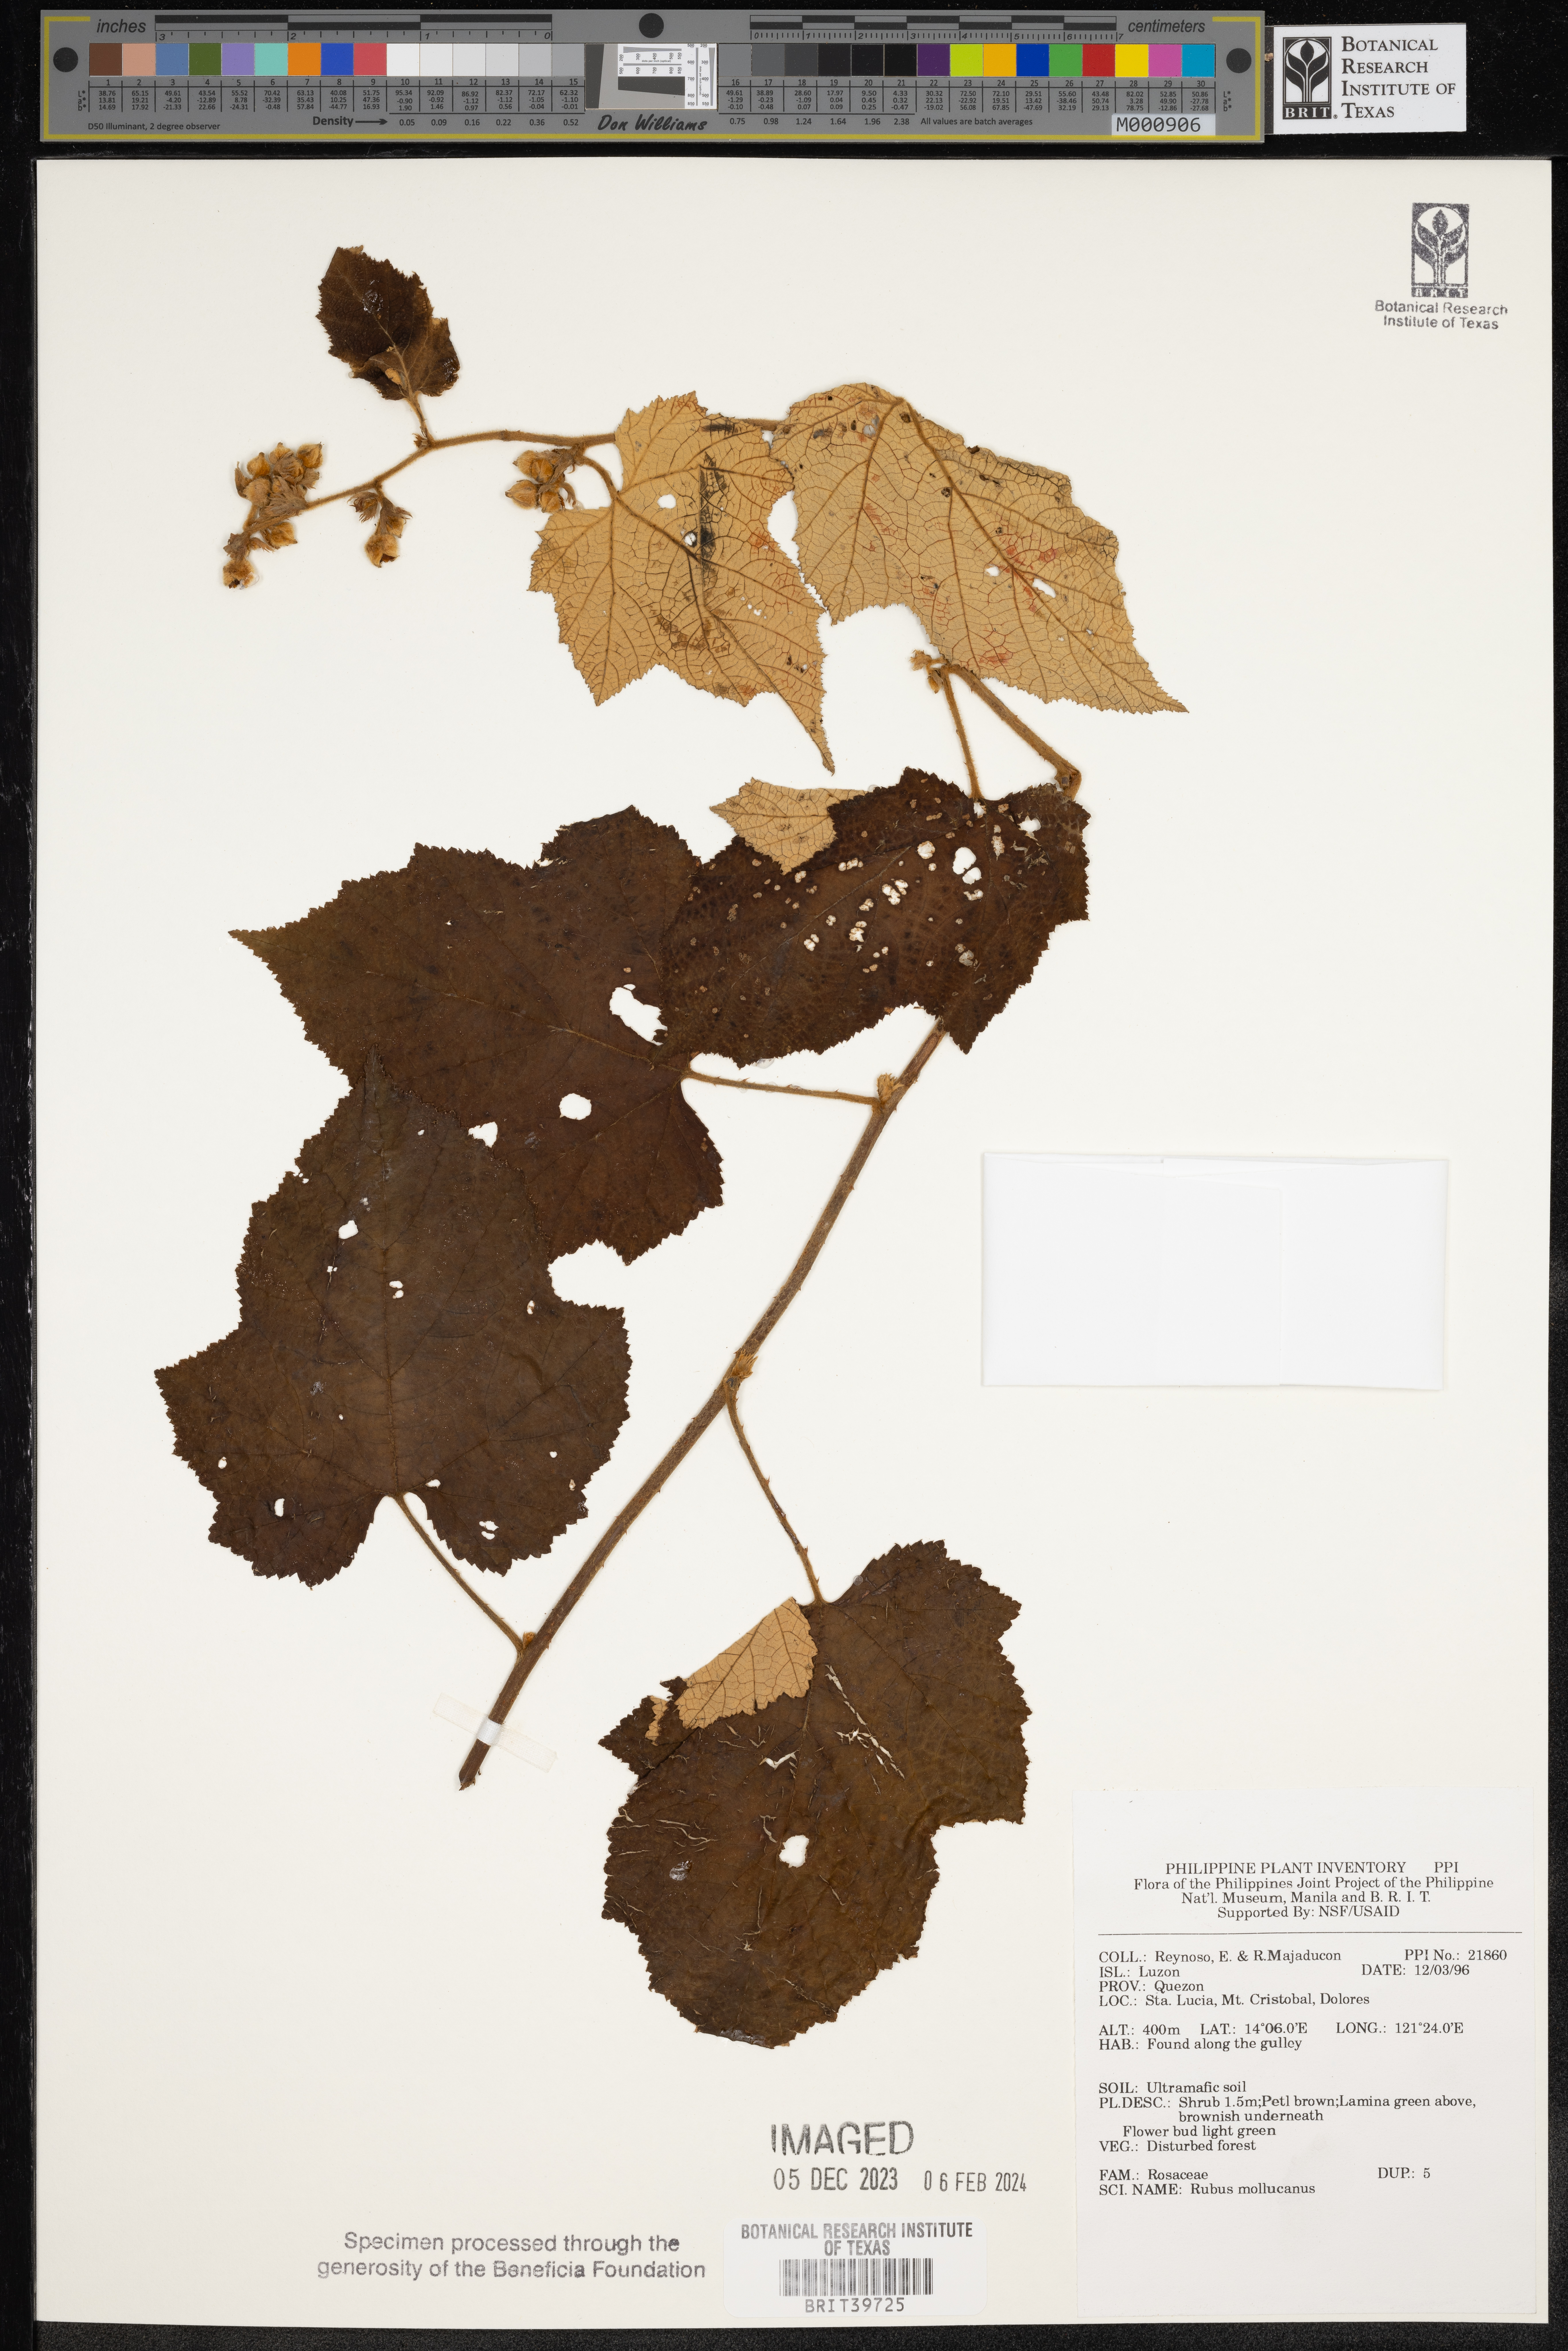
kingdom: Plantae
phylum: Tracheophyta
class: Magnoliopsida
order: Rosales
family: Rosaceae
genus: Rubus
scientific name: Rubus moluccanus
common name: Wild raspberry
